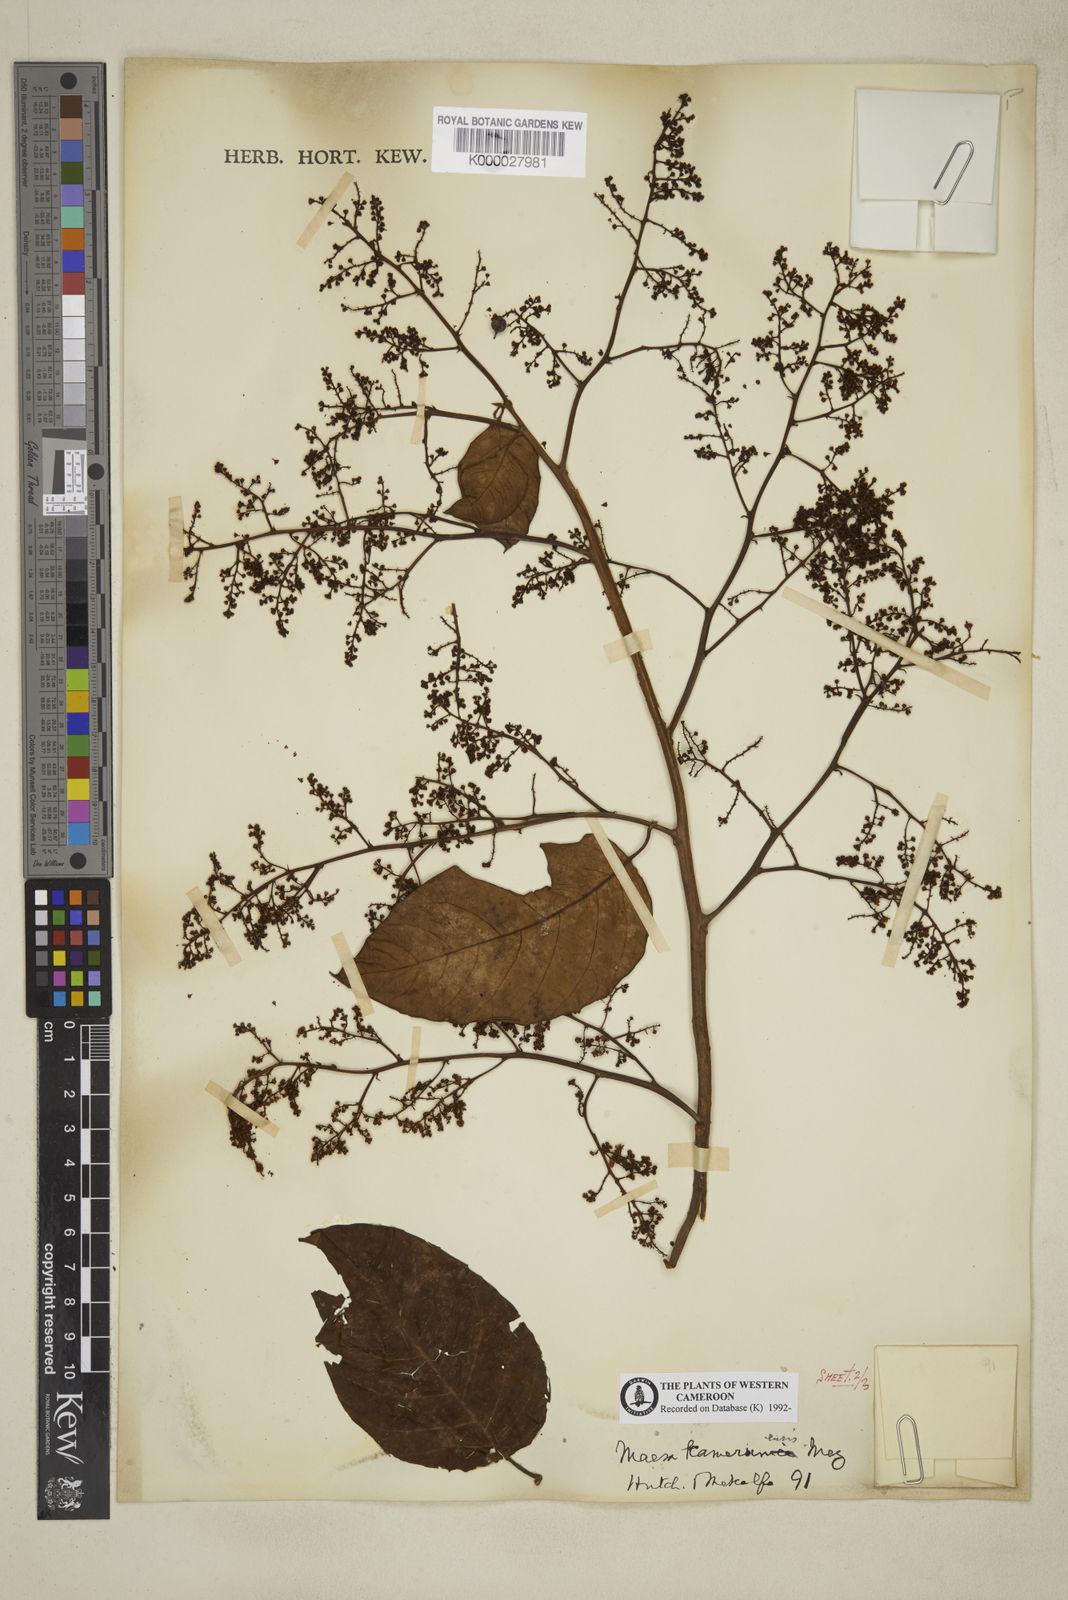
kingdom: Plantae
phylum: Tracheophyta
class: Magnoliopsida
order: Ericales
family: Primulaceae
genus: Maesa
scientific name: Maesa kamerunensis
